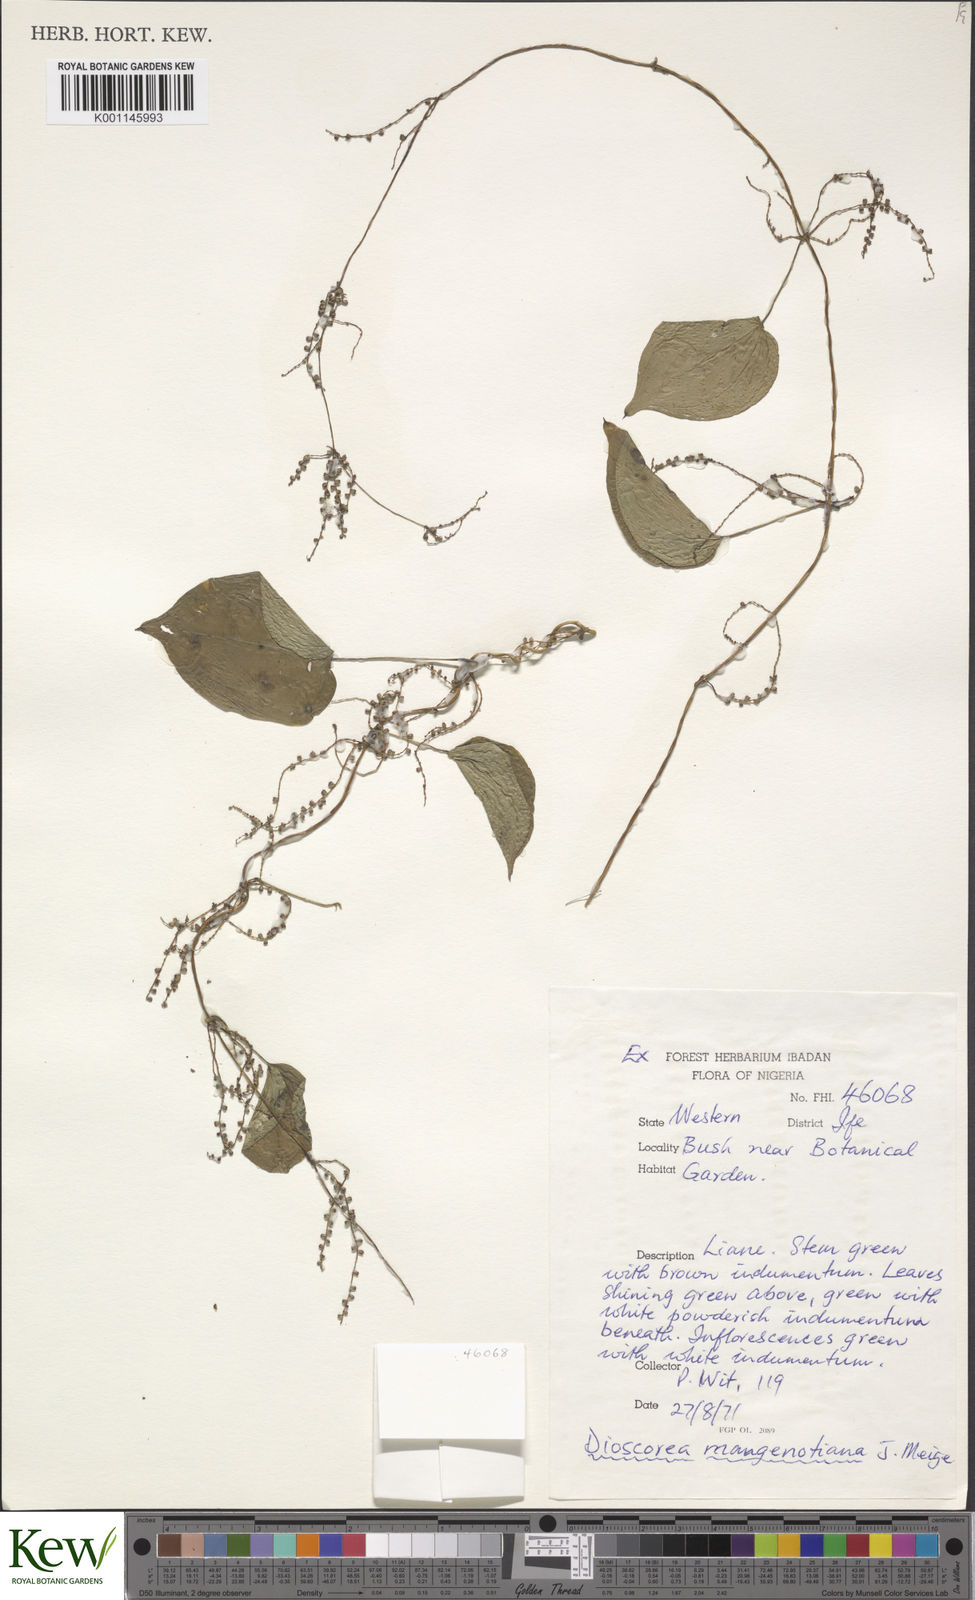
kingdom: Plantae
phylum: Tracheophyta
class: Liliopsida
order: Dioscoreales
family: Dioscoreaceae
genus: Dioscorea
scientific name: Dioscorea
